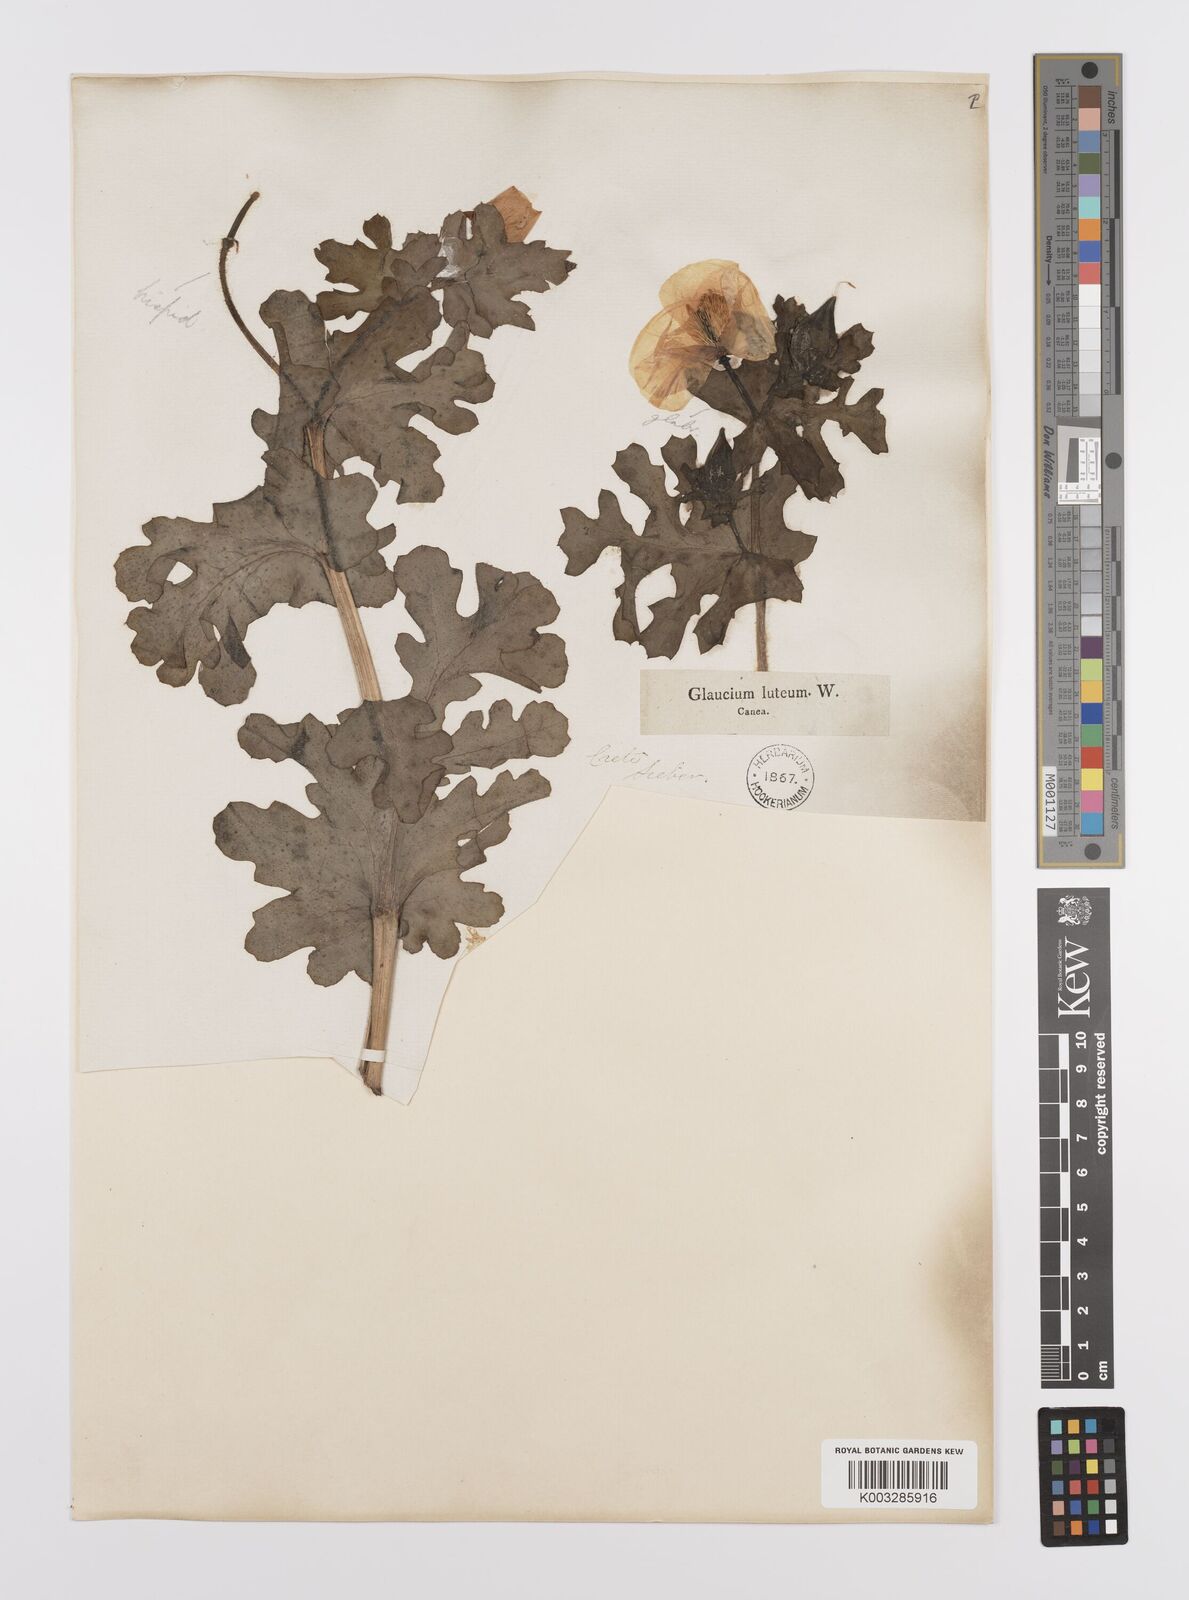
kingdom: Plantae
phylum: Tracheophyta
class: Magnoliopsida
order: Ranunculales
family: Papaveraceae
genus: Glaucium
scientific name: Glaucium flavum
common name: Yellow horned-poppy
